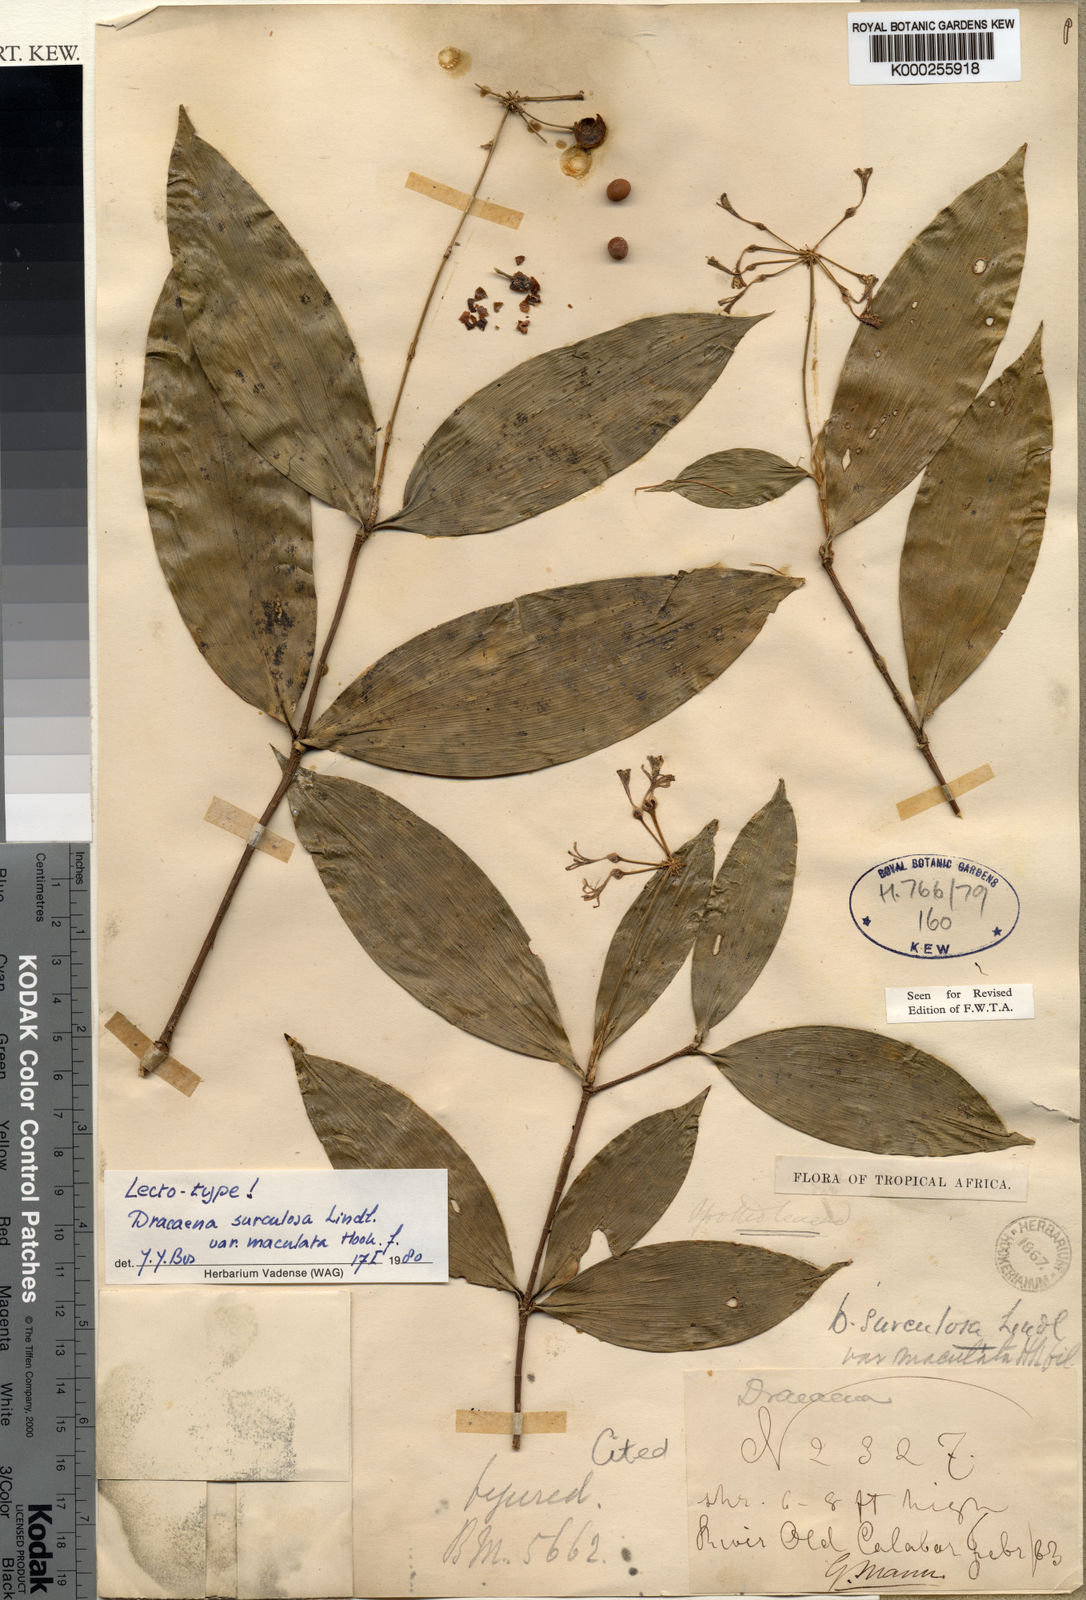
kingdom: Plantae
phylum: Tracheophyta
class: Liliopsida
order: Asparagales
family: Asparagaceae
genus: Dracaena
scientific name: Dracaena surculosa
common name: Spotted dracaena
